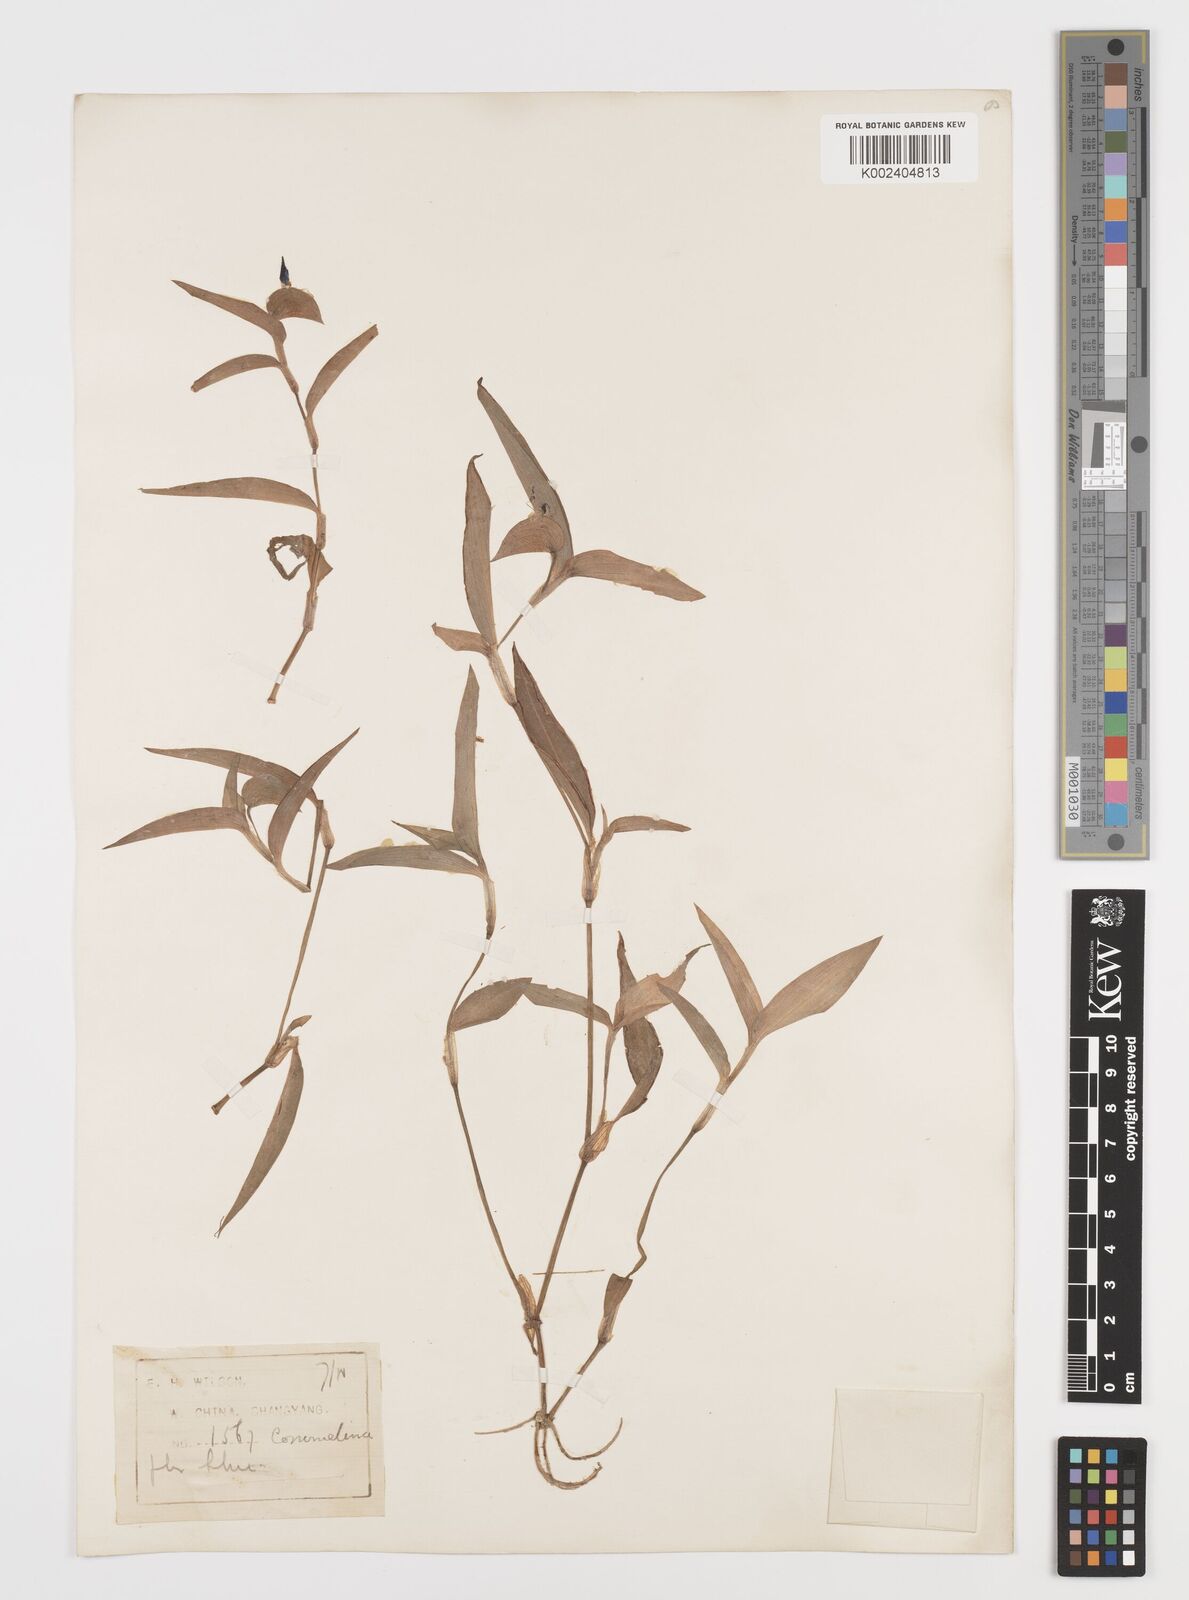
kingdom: Plantae
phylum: Tracheophyta
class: Liliopsida
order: Commelinales
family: Commelinaceae
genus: Commelina
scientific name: Commelina communis
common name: Asiatic dayflower
